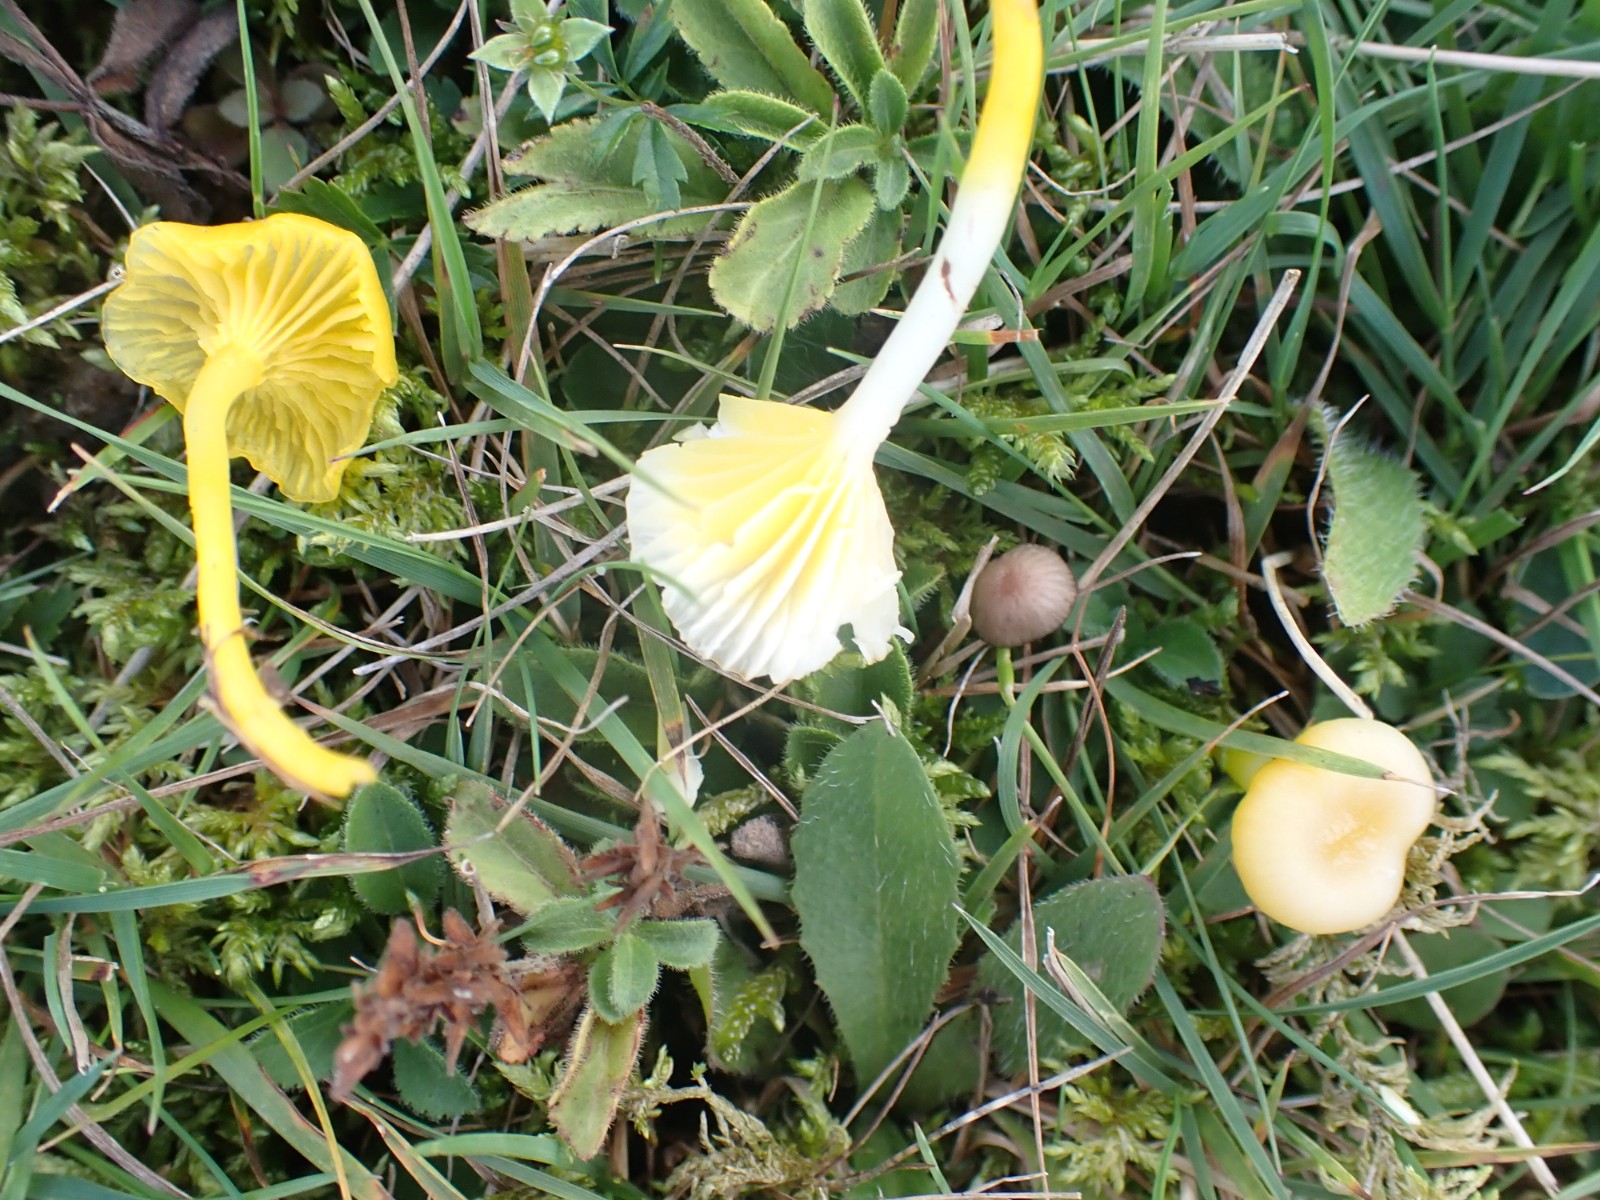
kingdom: Fungi
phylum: Basidiomycota
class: Agaricomycetes
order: Agaricales
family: Hygrophoraceae
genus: Gloioxanthomyces
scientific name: Gloioxanthomyces vitellinus
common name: kromgul vokshat
